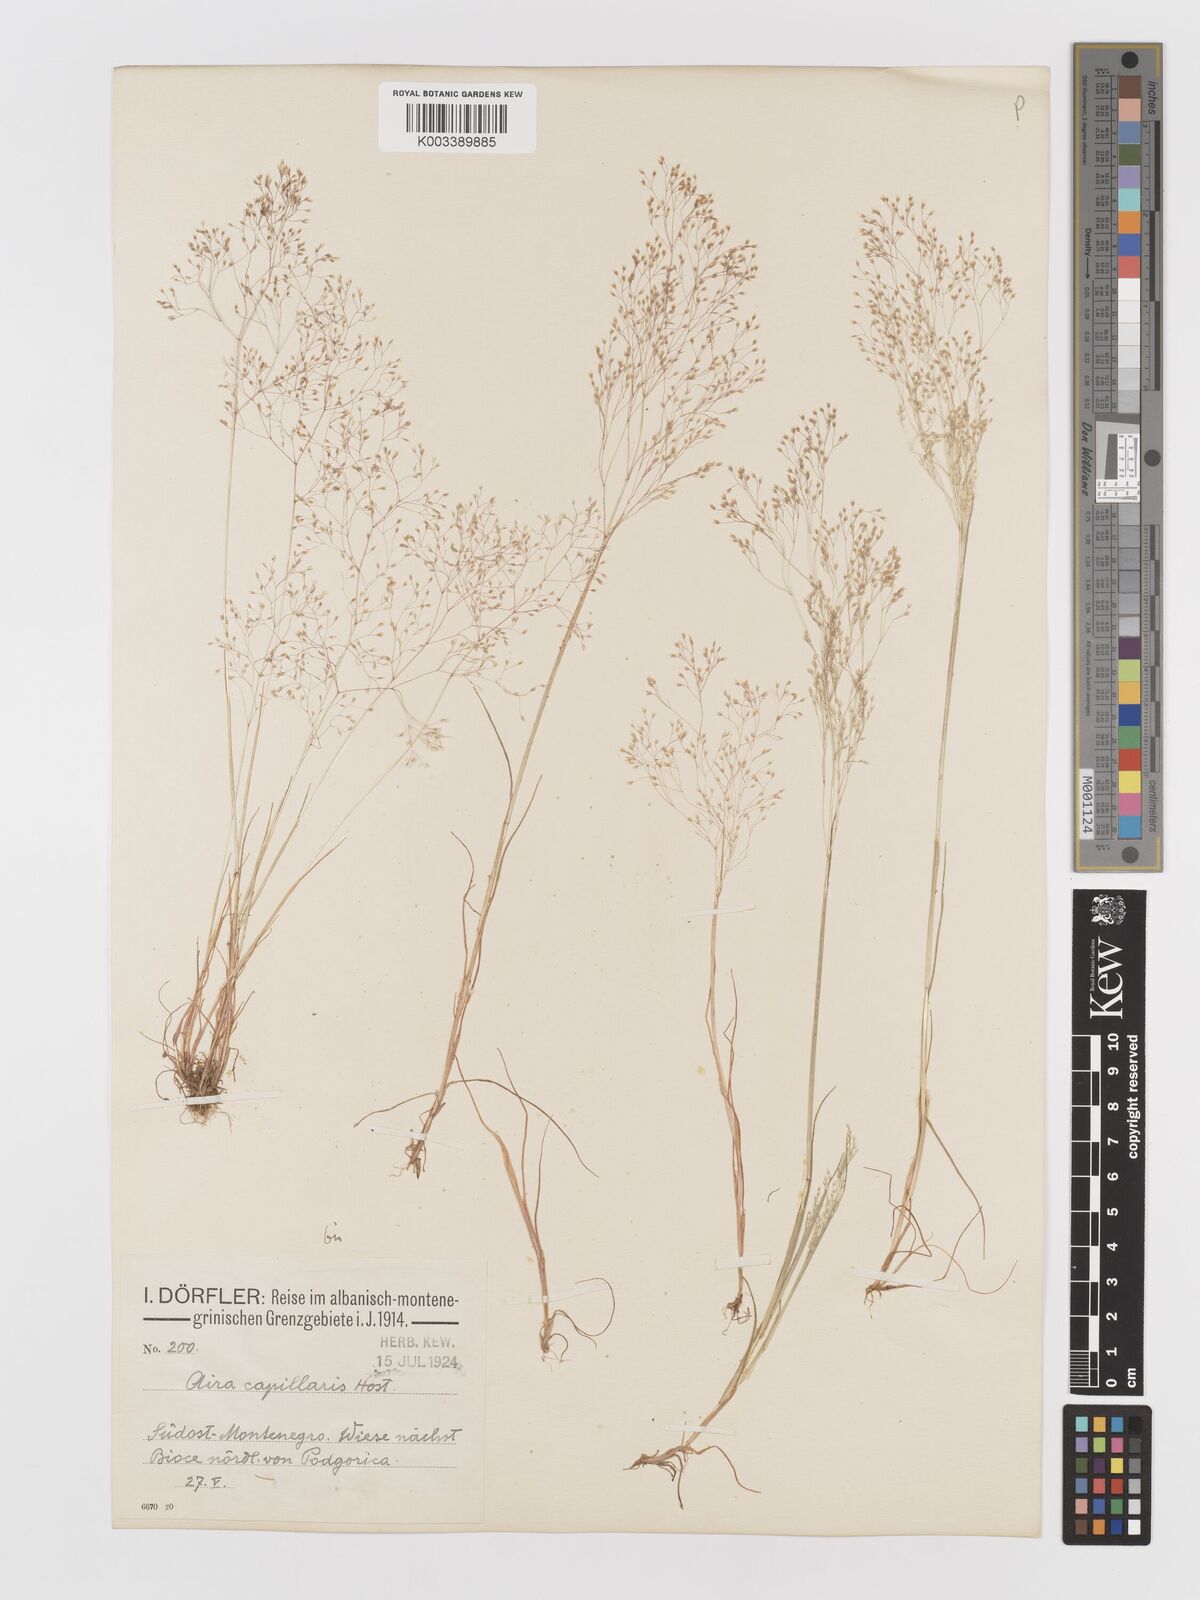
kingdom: Plantae
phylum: Tracheophyta
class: Liliopsida
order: Poales
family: Poaceae
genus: Aira
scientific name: Aira elegans
